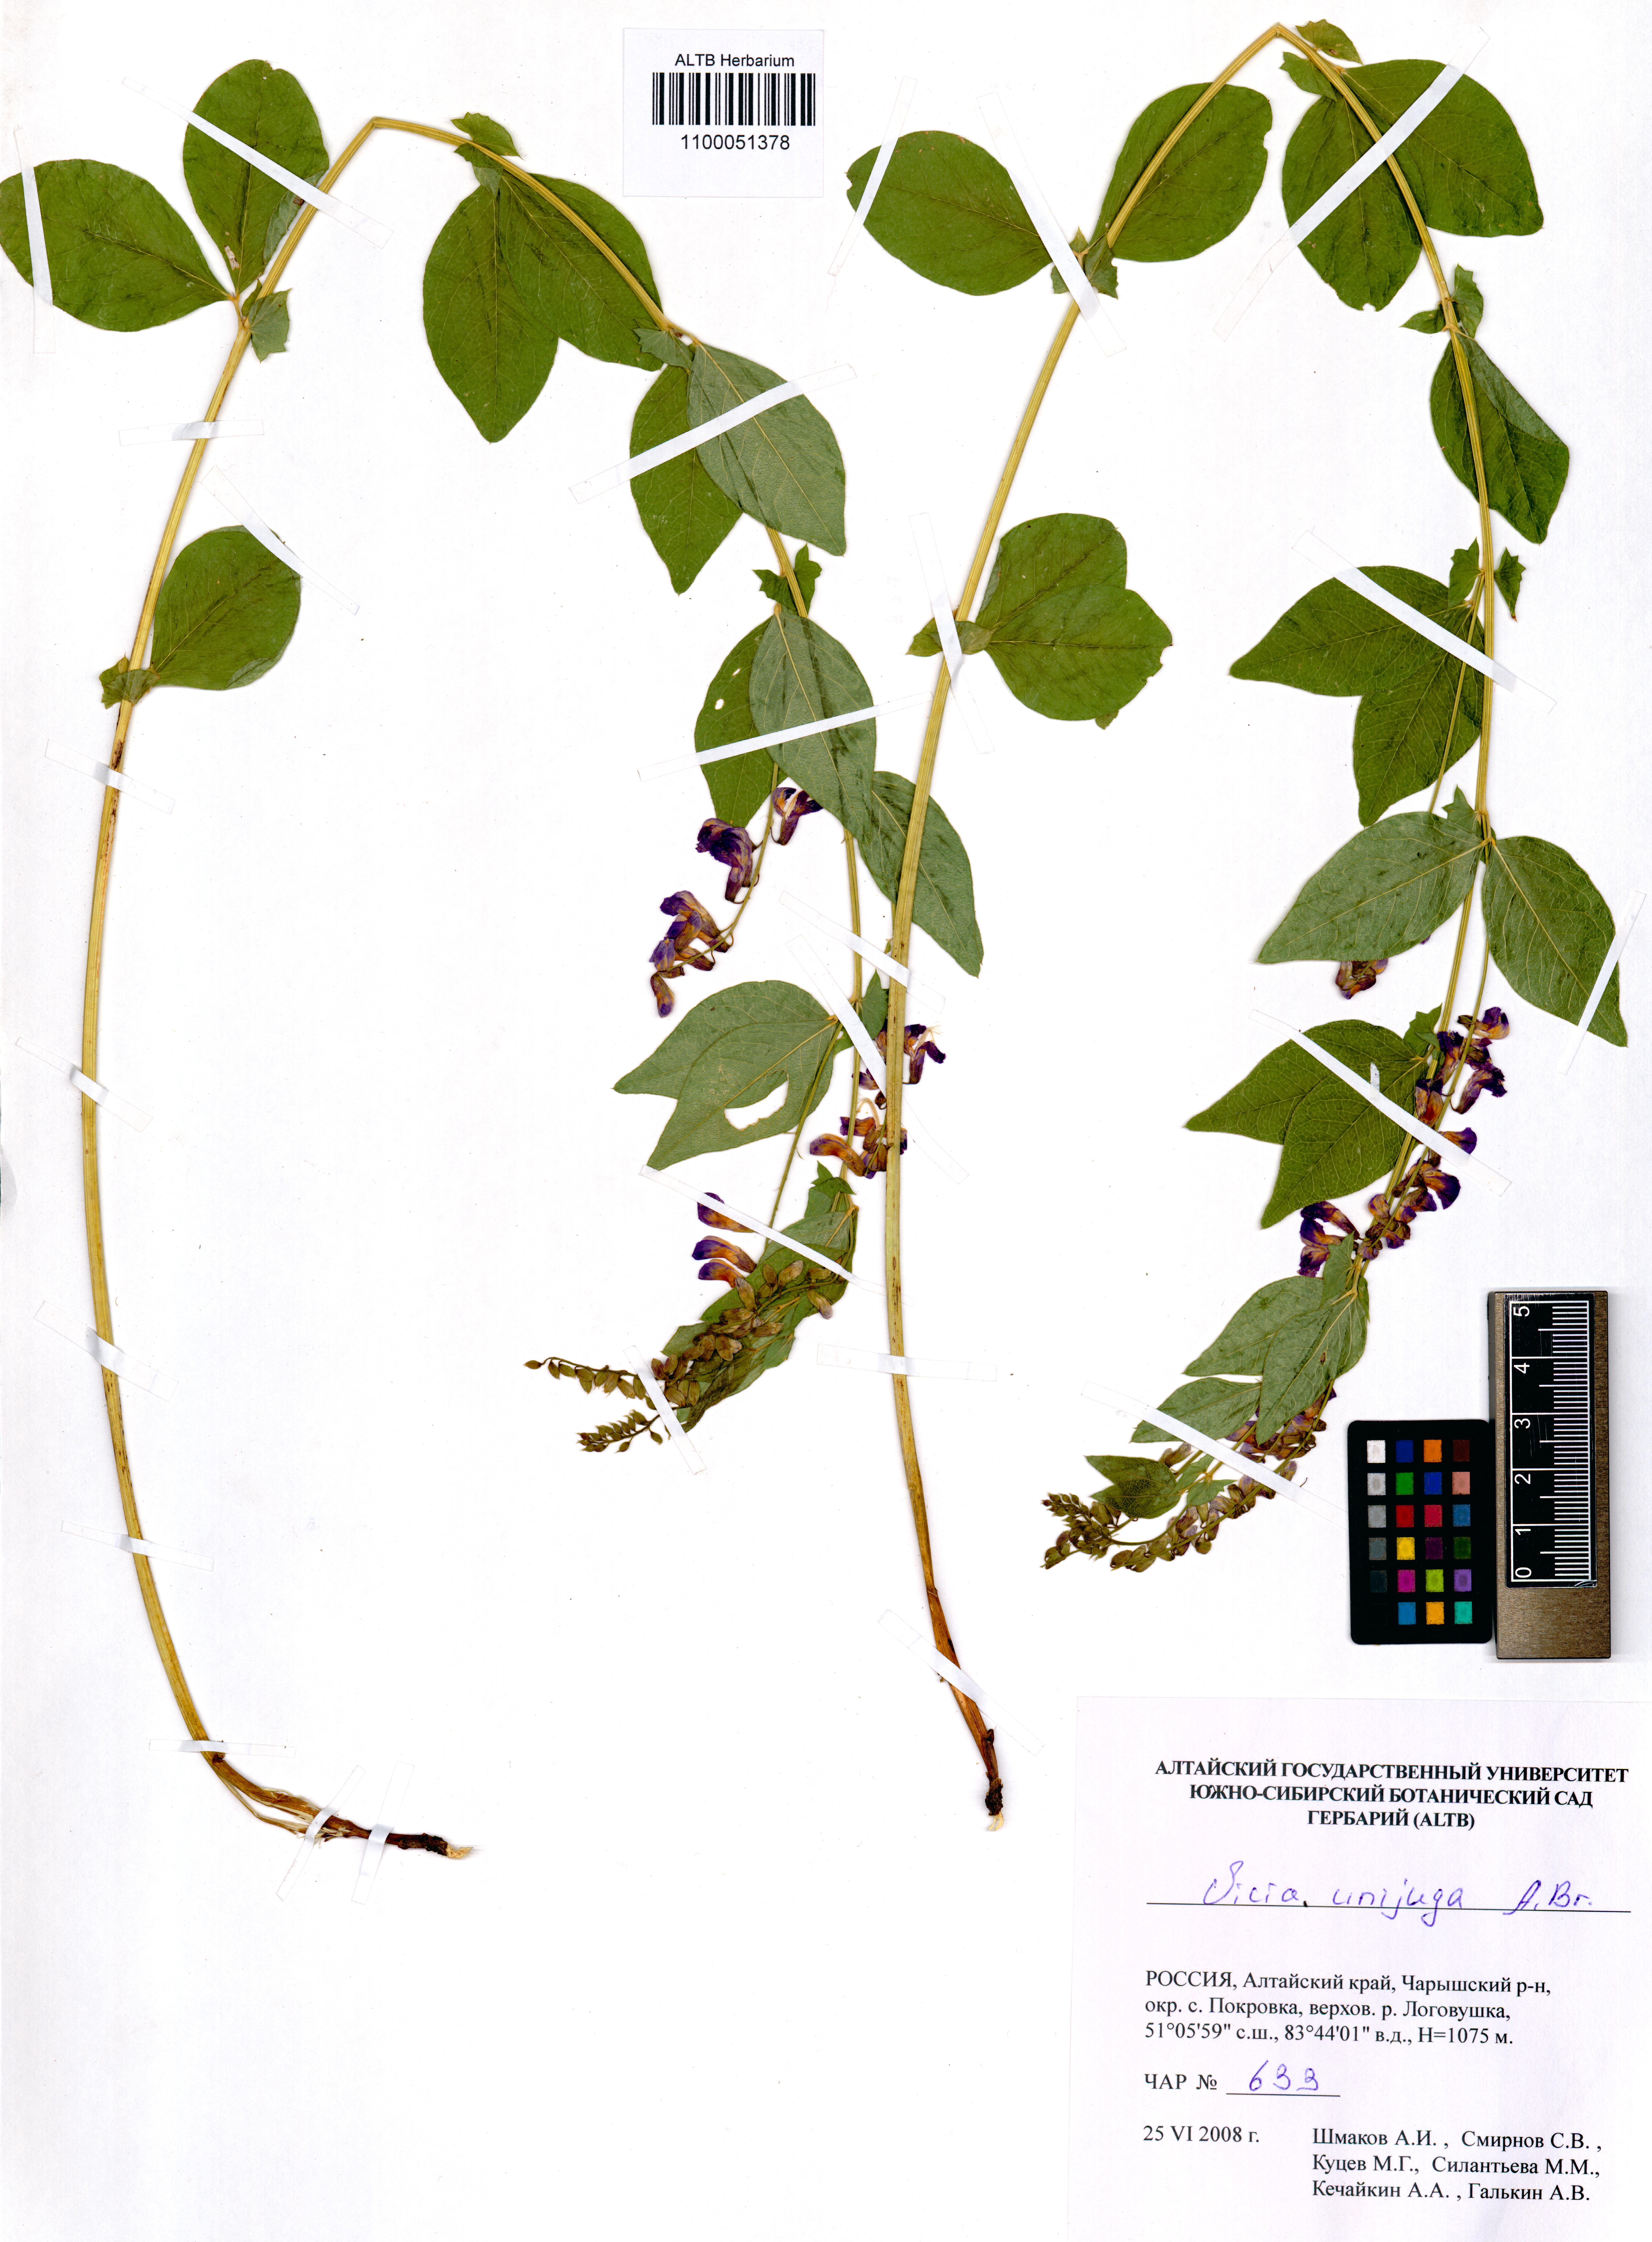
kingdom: Plantae
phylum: Tracheophyta
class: Magnoliopsida
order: Fabales
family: Fabaceae
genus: Vicia
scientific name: Vicia unijuga
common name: Two-leaf vetch
